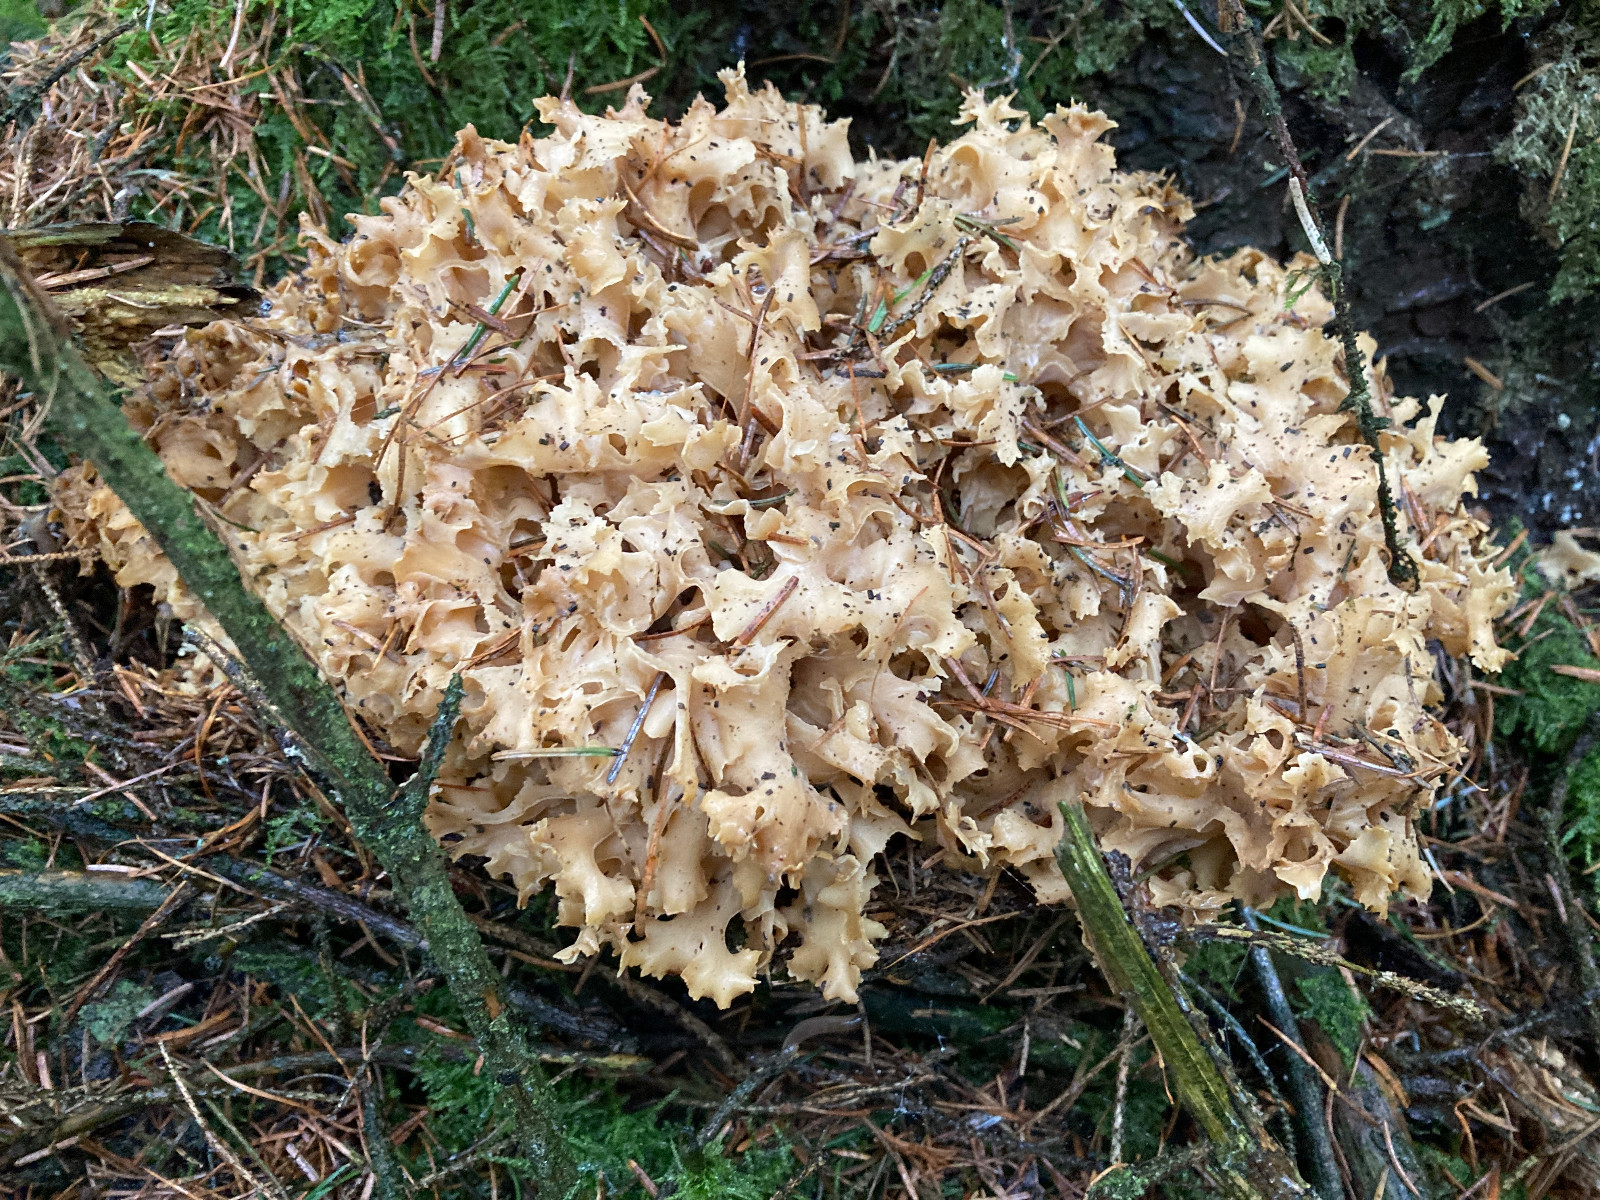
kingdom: Fungi
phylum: Basidiomycota
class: Agaricomycetes
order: Polyporales
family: Sparassidaceae
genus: Sparassis
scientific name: Sparassis crispa
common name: kruset blomkålssvamp
